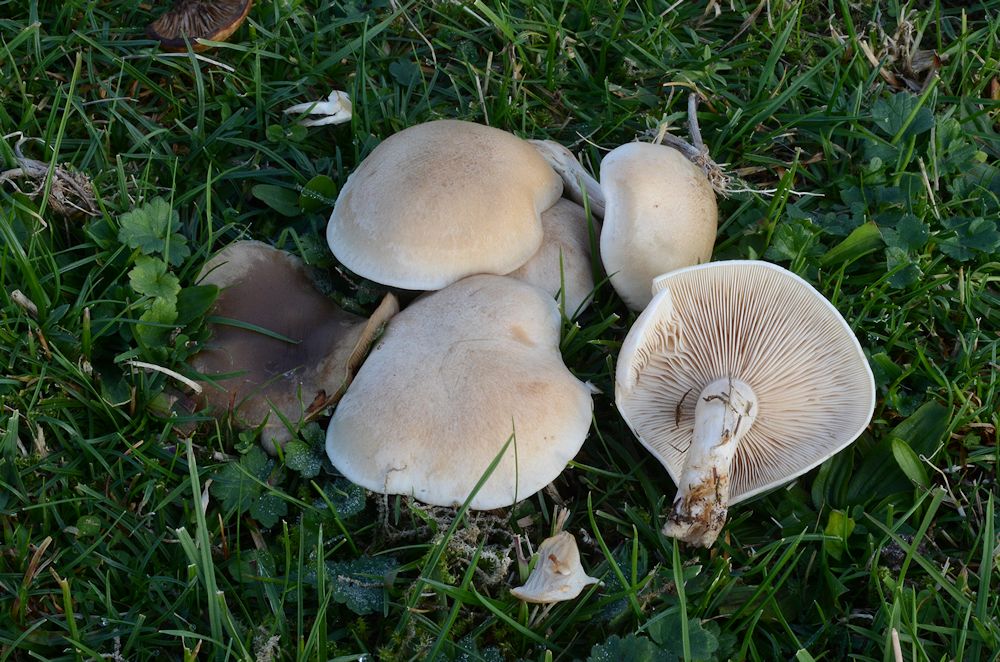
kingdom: Fungi
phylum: Basidiomycota
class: Agaricomycetes
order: Agaricales
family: Tricholomataceae
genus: Lepista
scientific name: Lepista panaeolus
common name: marmoreret hekseringshat
